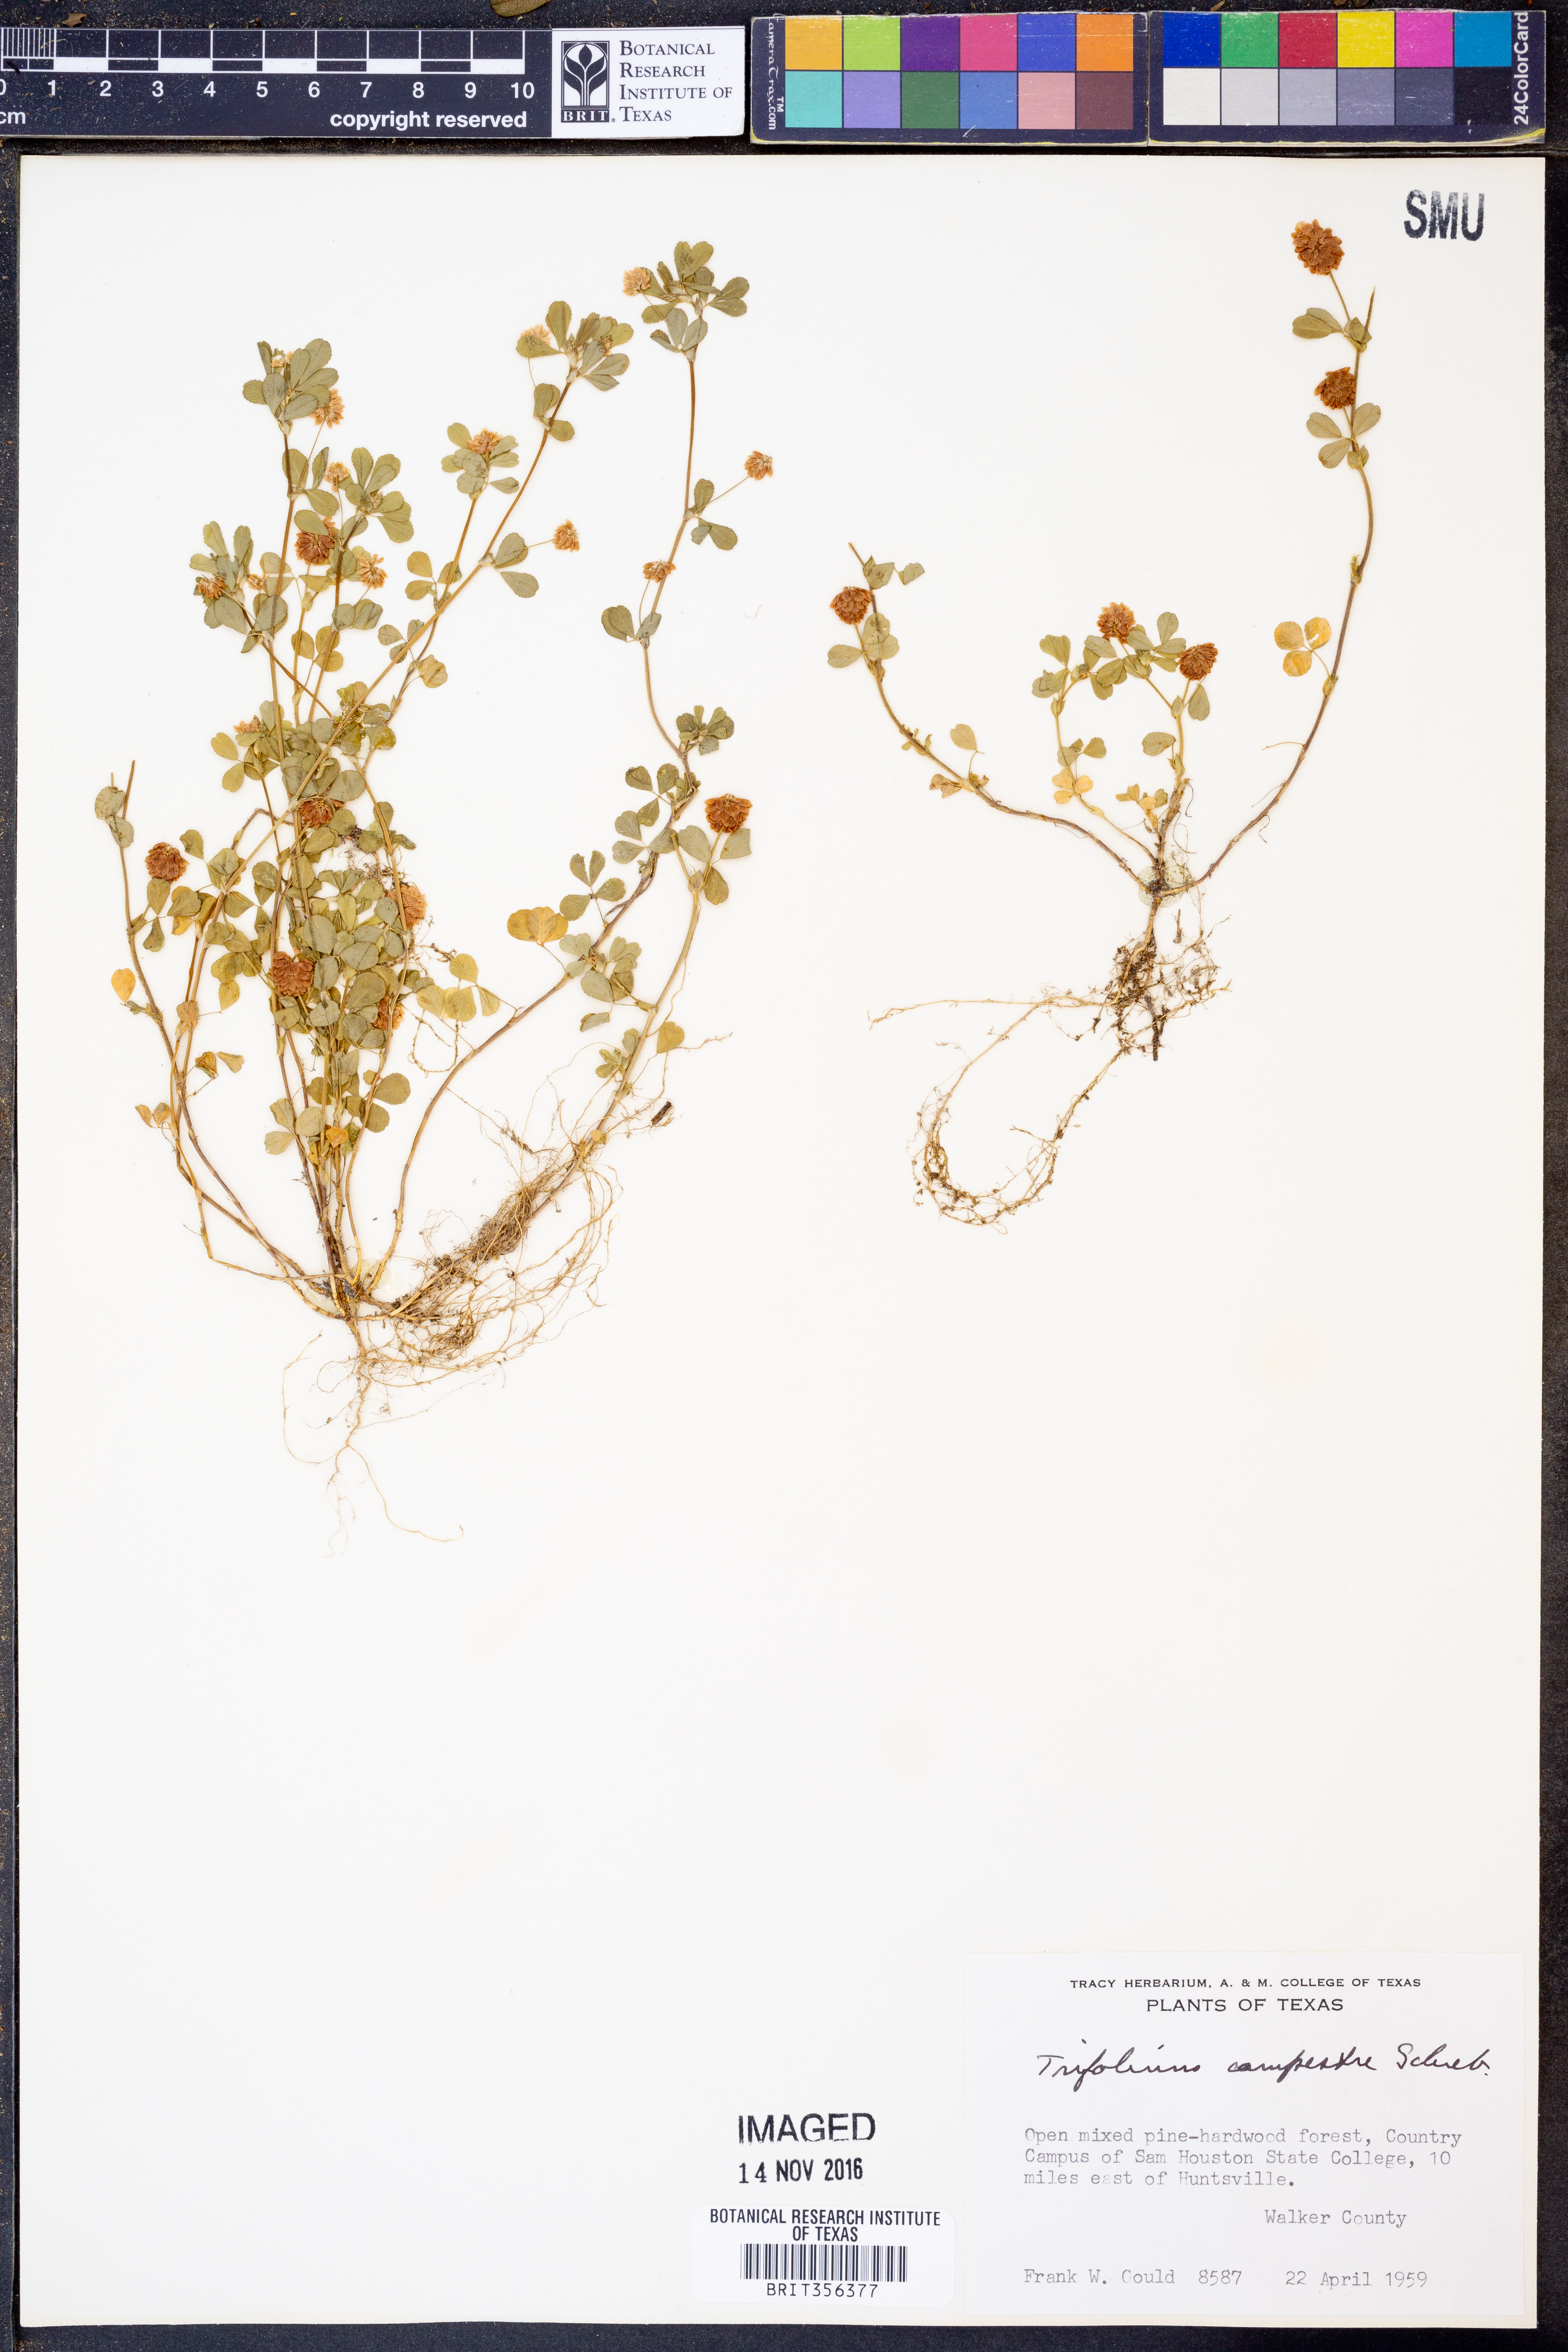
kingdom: Plantae
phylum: Tracheophyta
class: Magnoliopsida
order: Fabales
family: Fabaceae
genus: Trifolium
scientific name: Trifolium campestre
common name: Field clover
